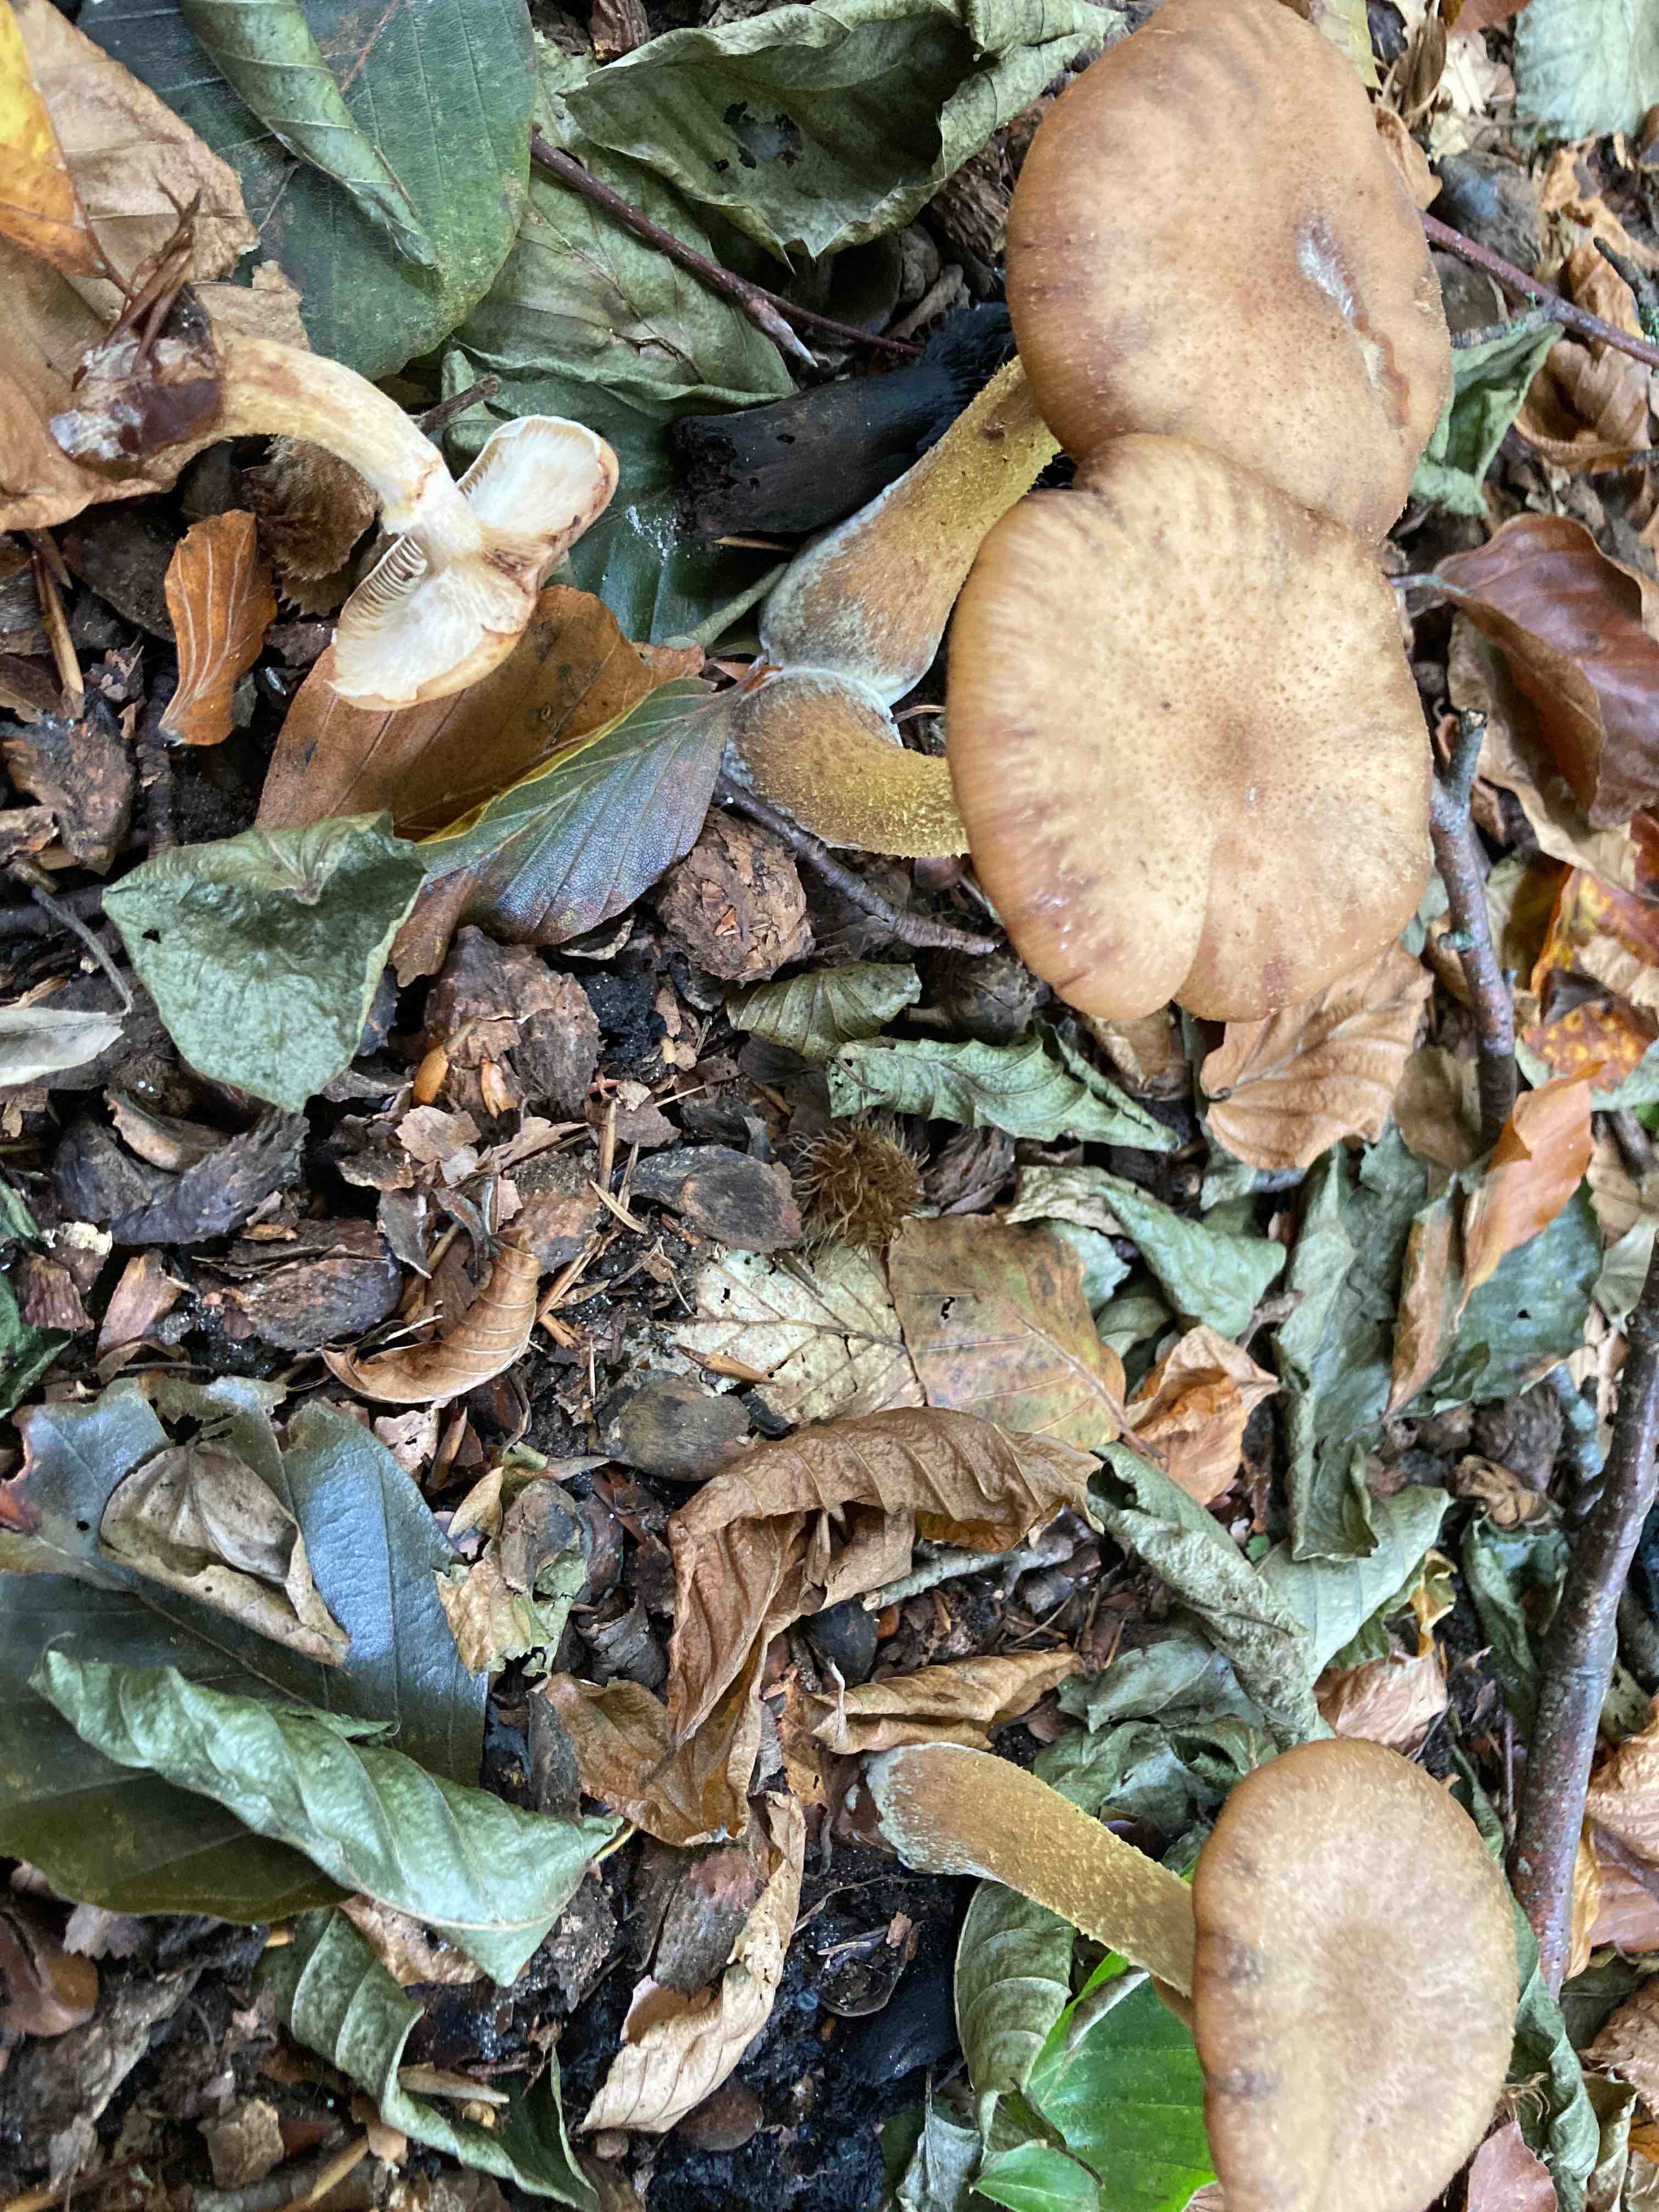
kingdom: Fungi
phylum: Basidiomycota
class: Agaricomycetes
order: Agaricales
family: Physalacriaceae
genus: Armillaria
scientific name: Armillaria lutea
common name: køllestokket honningsvamp
